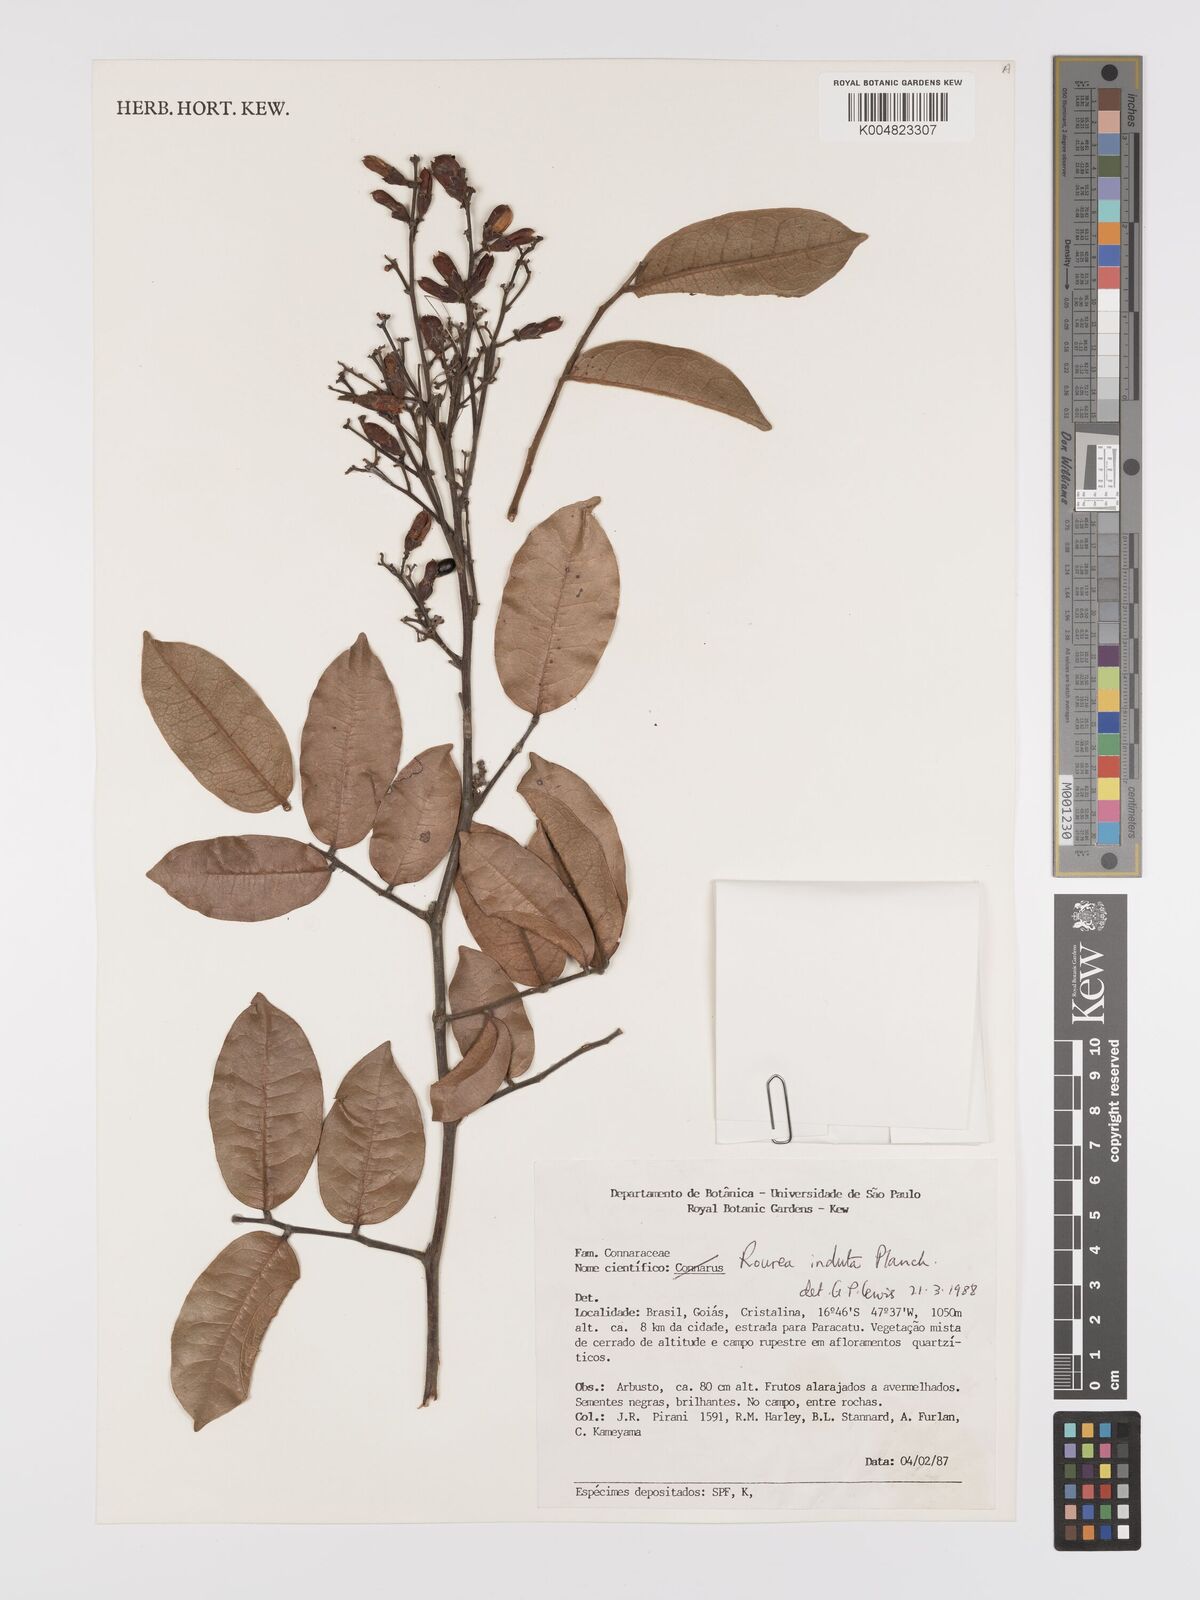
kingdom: Plantae
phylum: Tracheophyta
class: Magnoliopsida
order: Oxalidales
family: Connaraceae
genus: Rourea
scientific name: Rourea induta
